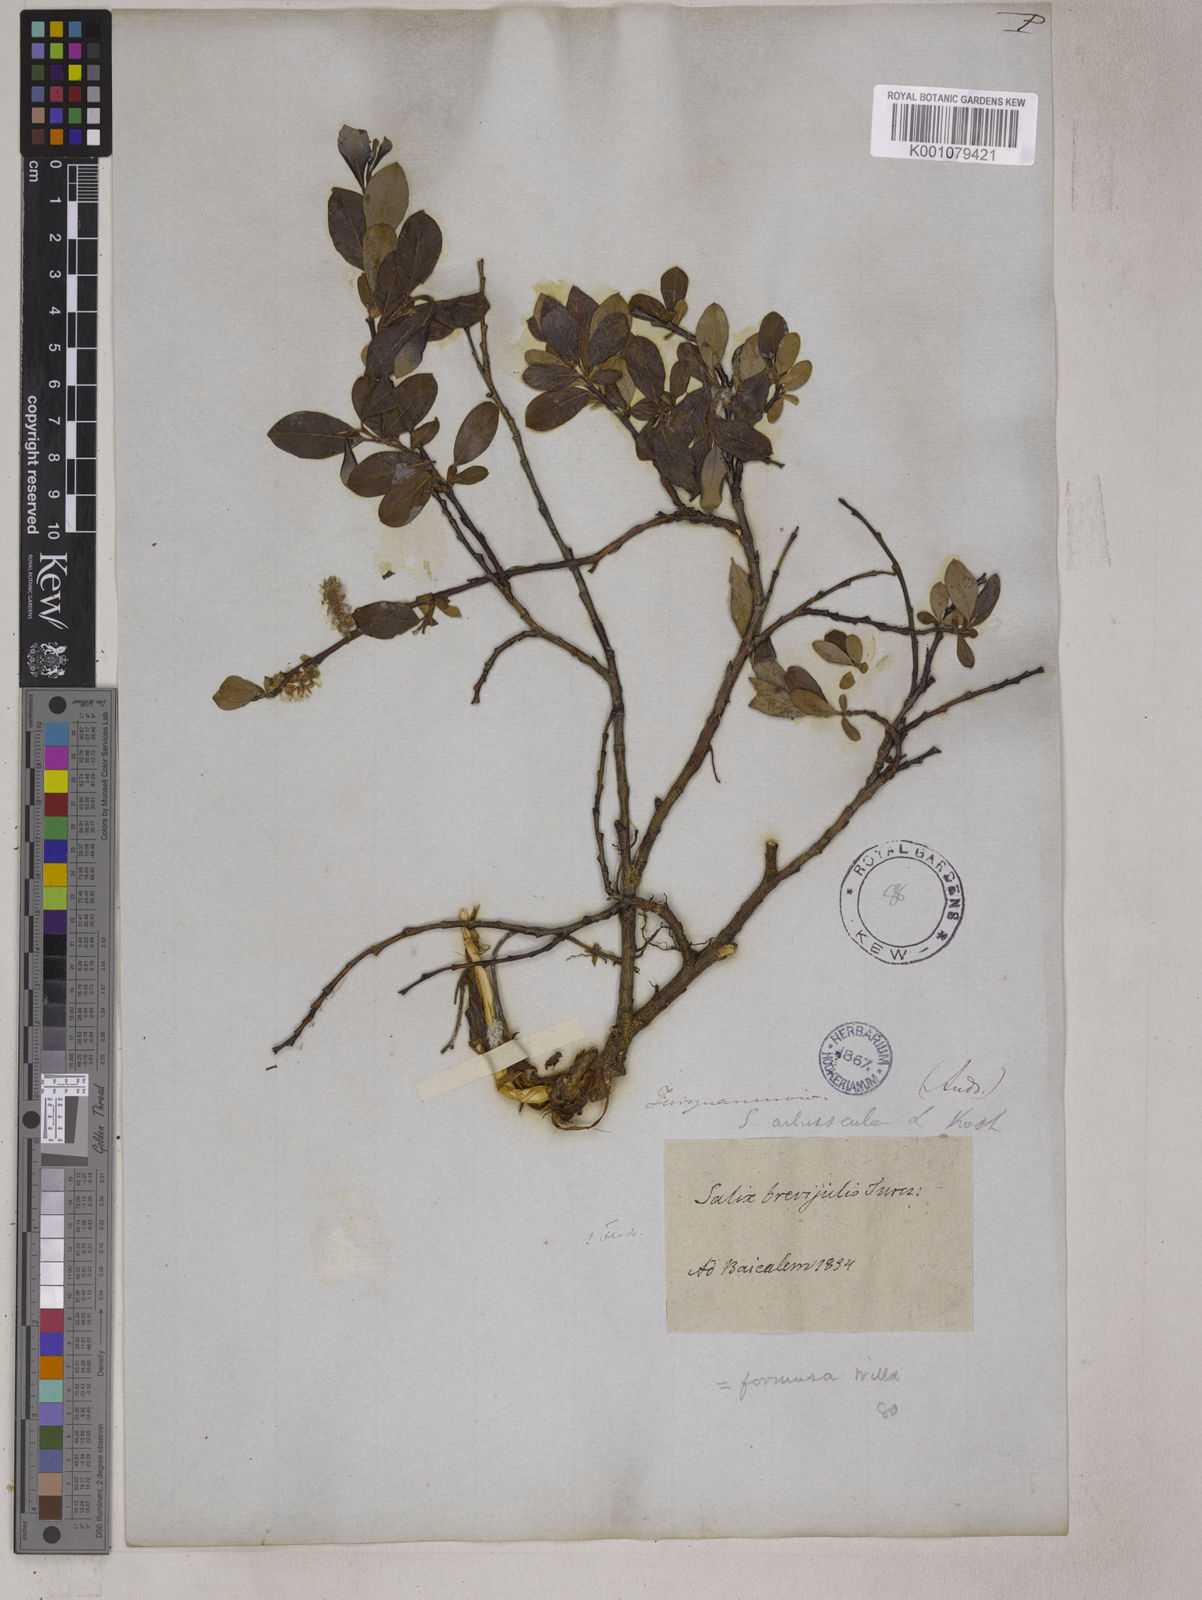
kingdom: Plantae
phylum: Tracheophyta
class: Magnoliopsida
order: Malpighiales
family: Salicaceae
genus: Salix
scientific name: Salix divaricata
